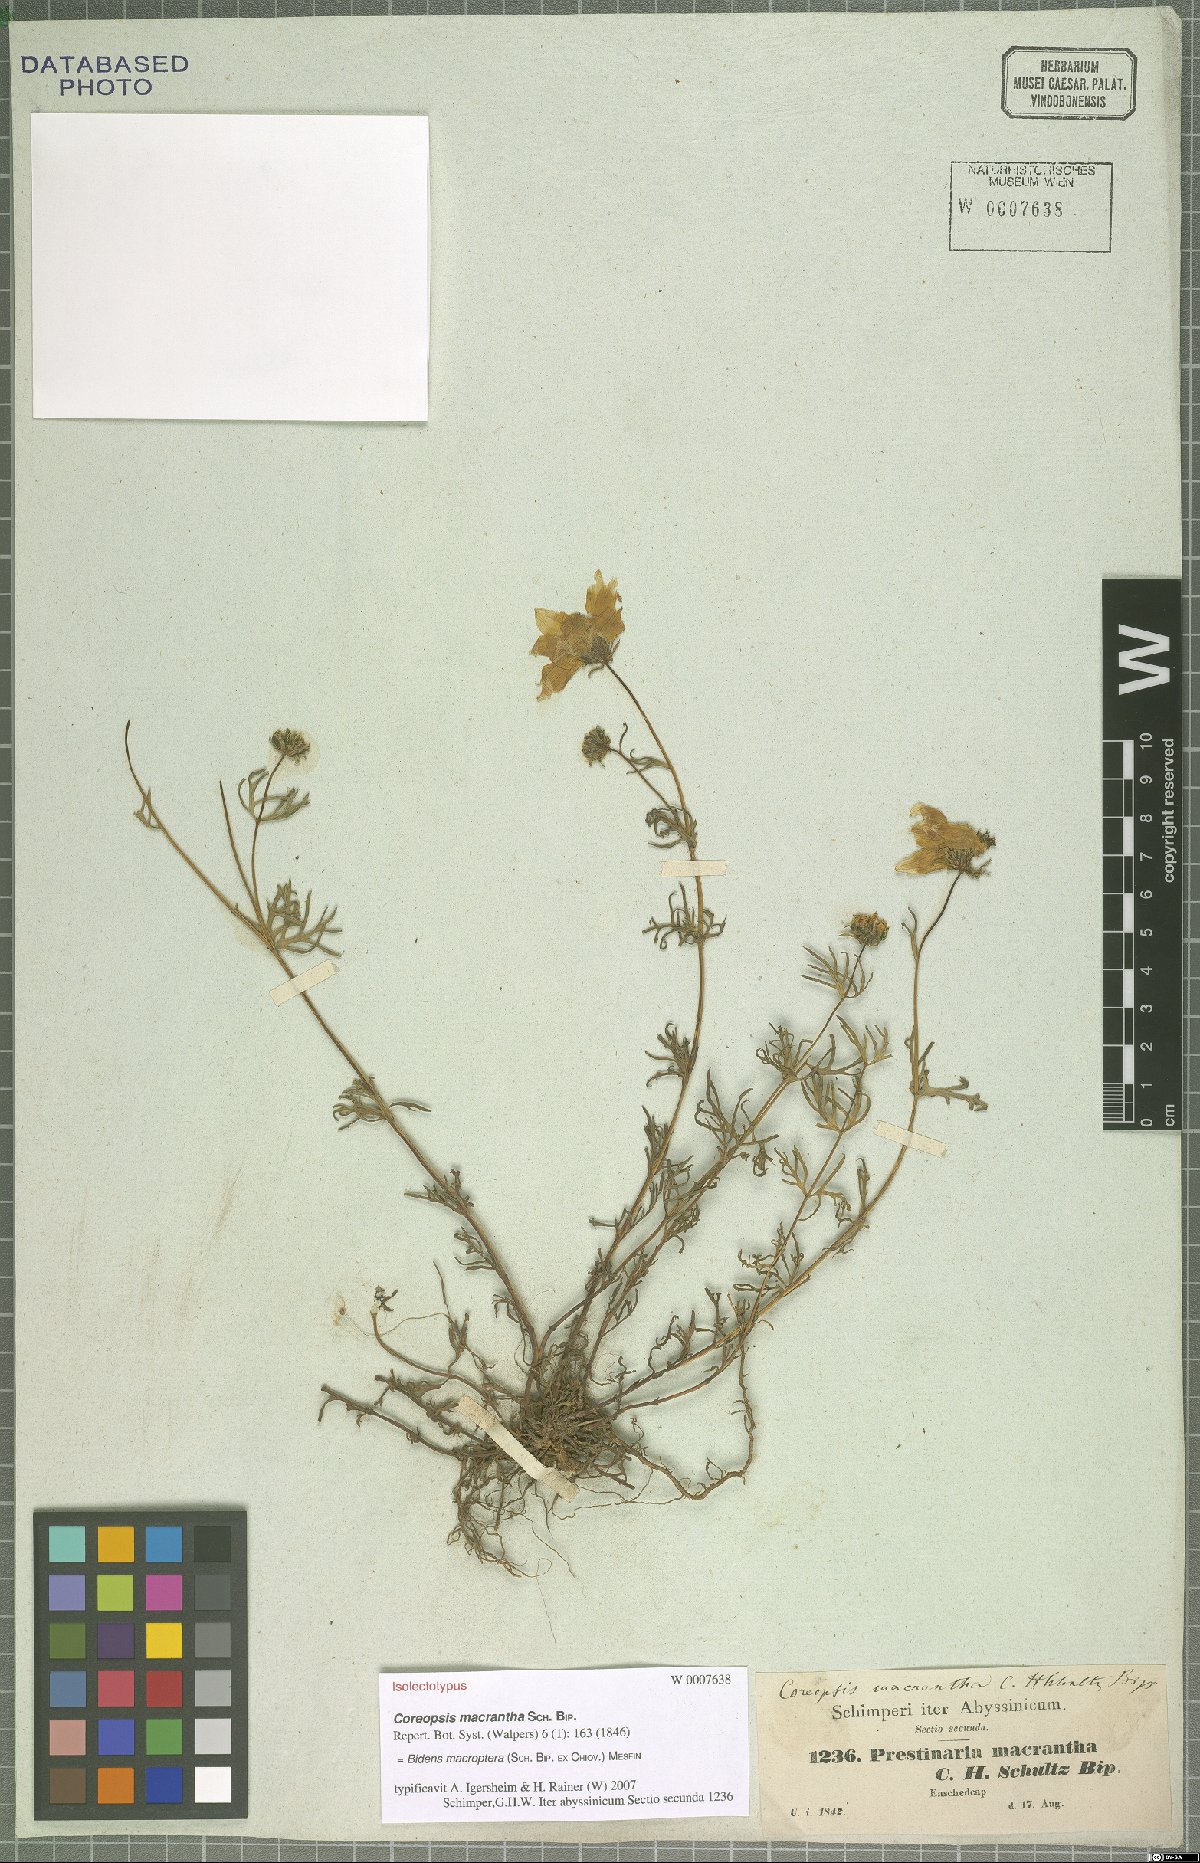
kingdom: Plantae
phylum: Tracheophyta
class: Magnoliopsida
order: Asterales
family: Asteraceae
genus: Bidens
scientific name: Bidens macroptera
